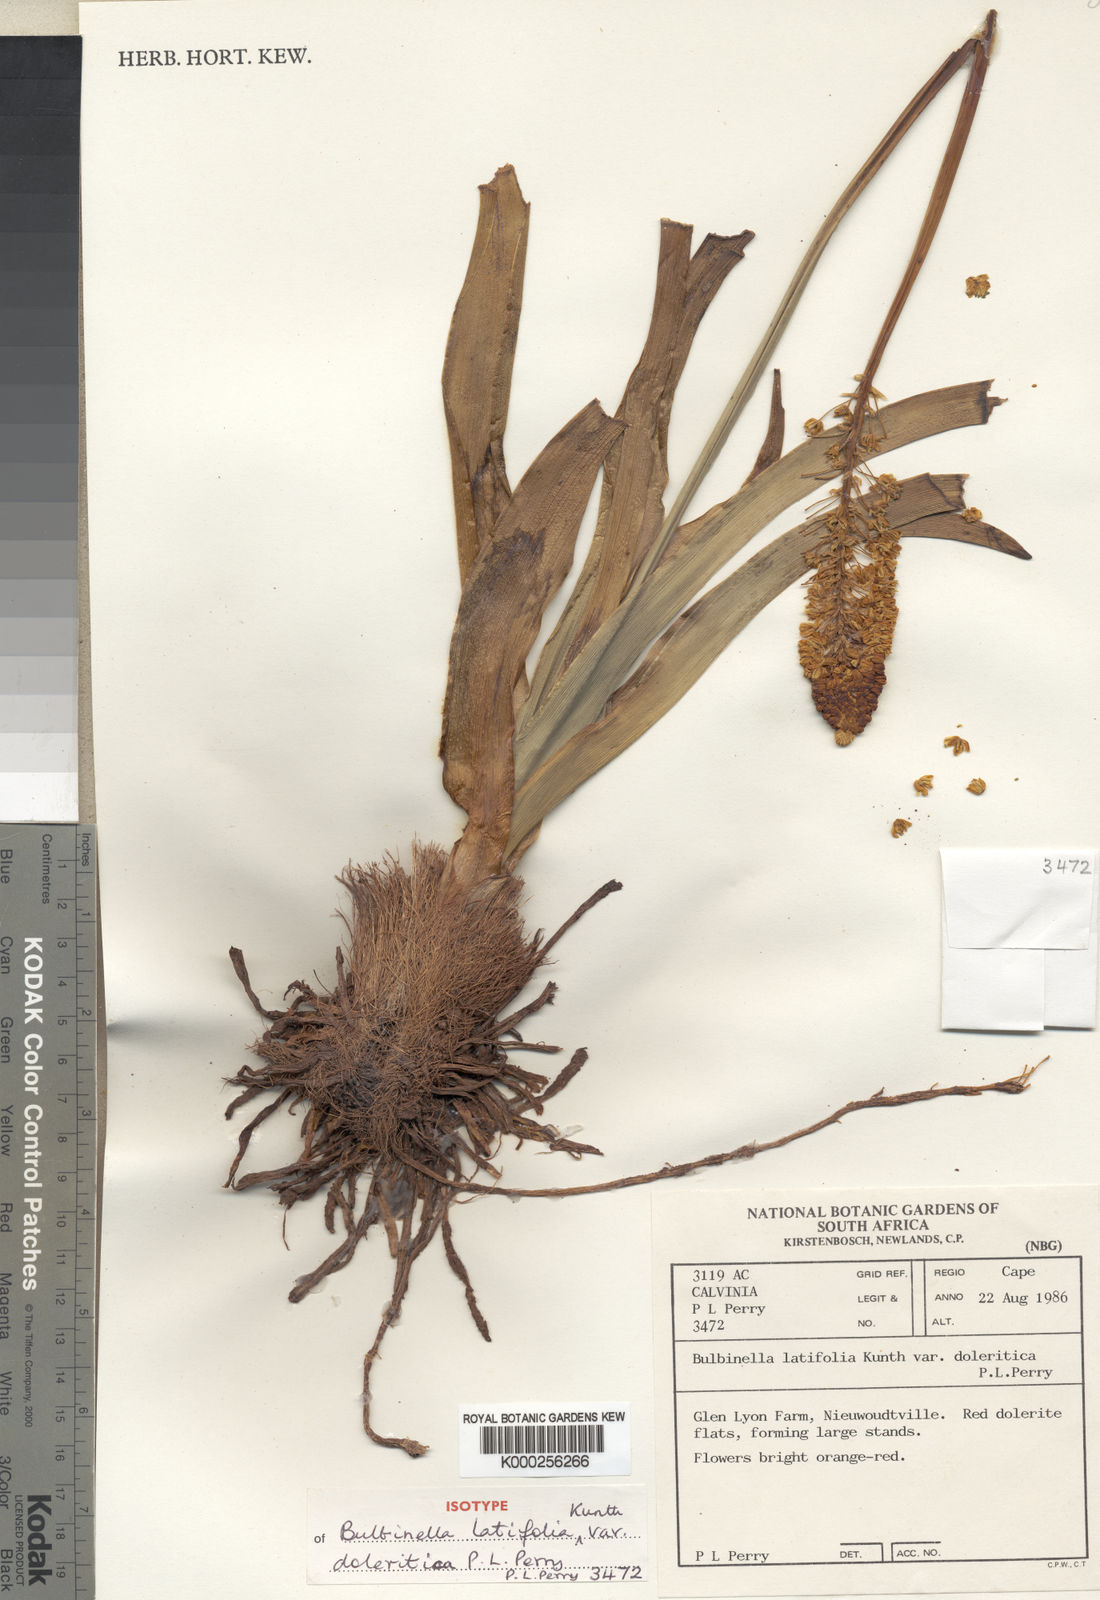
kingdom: Plantae
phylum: Tracheophyta
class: Liliopsida
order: Asparagales
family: Asphodelaceae
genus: Bulbinella
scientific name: Bulbinella latifolia
